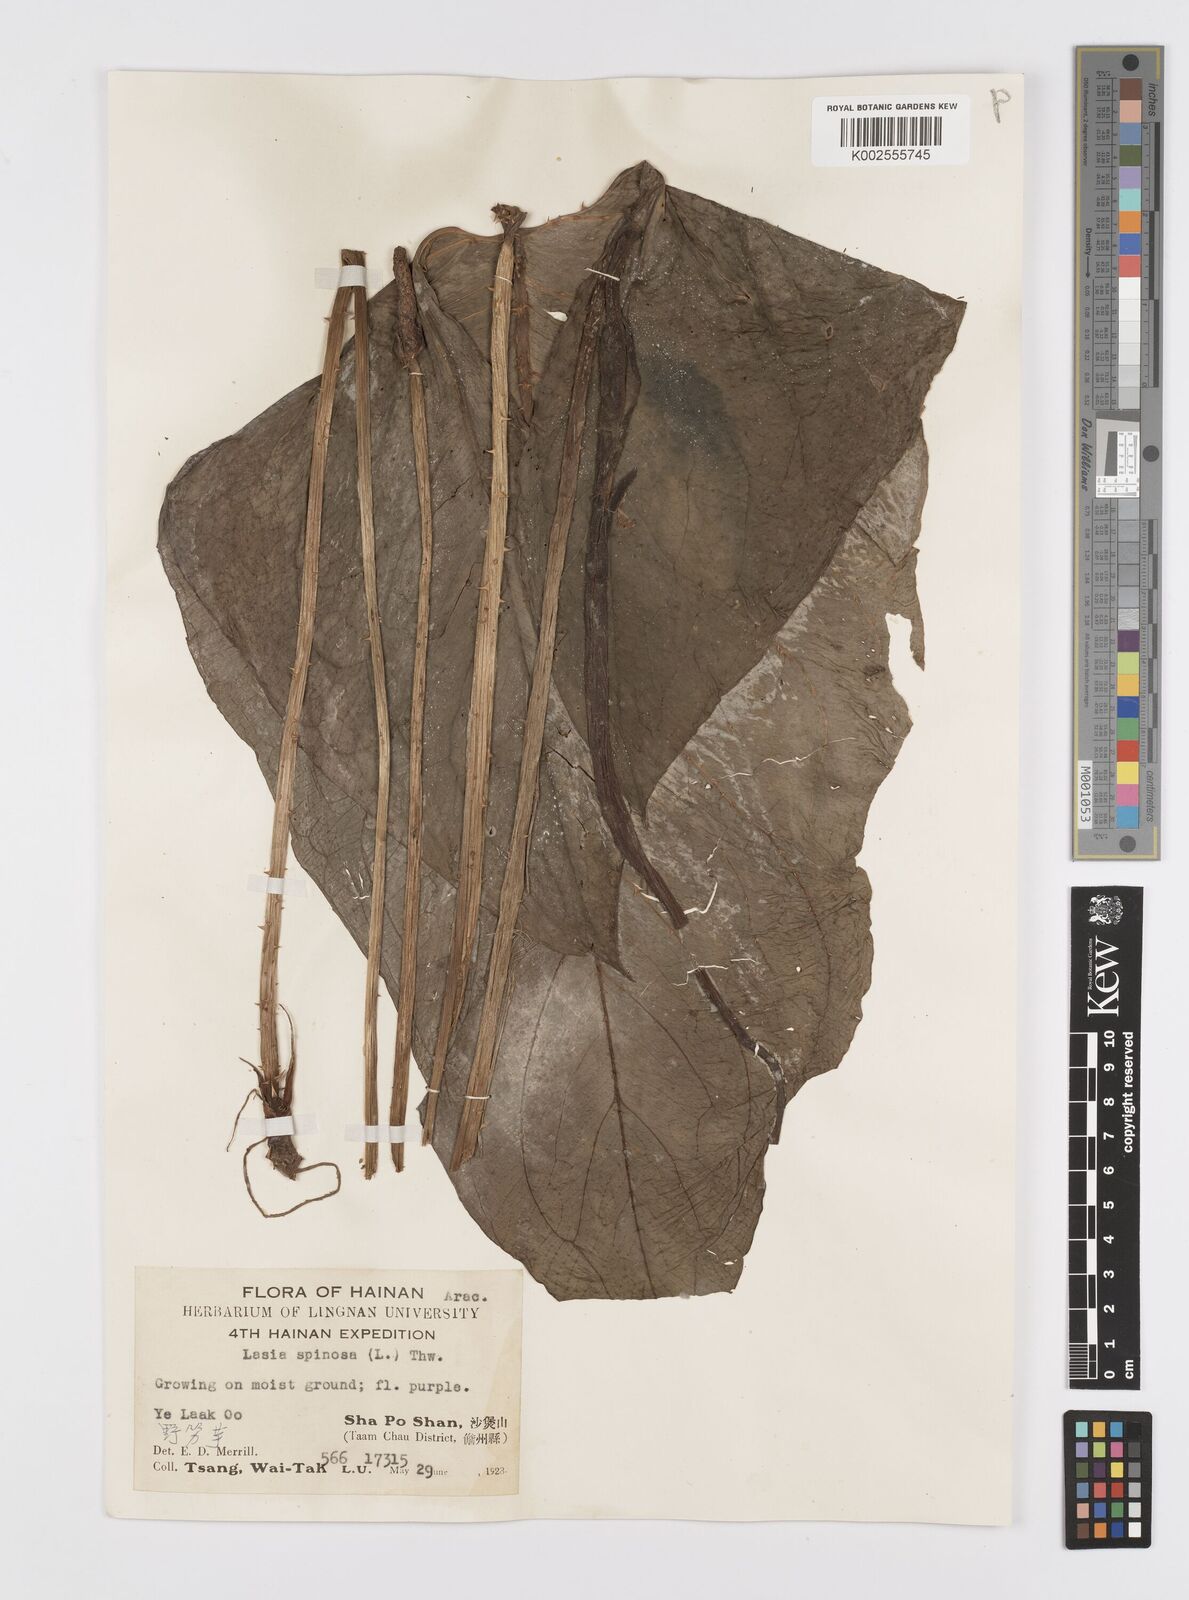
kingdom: Plantae
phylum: Tracheophyta
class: Liliopsida
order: Alismatales
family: Araceae
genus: Lasia
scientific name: Lasia spinosa
